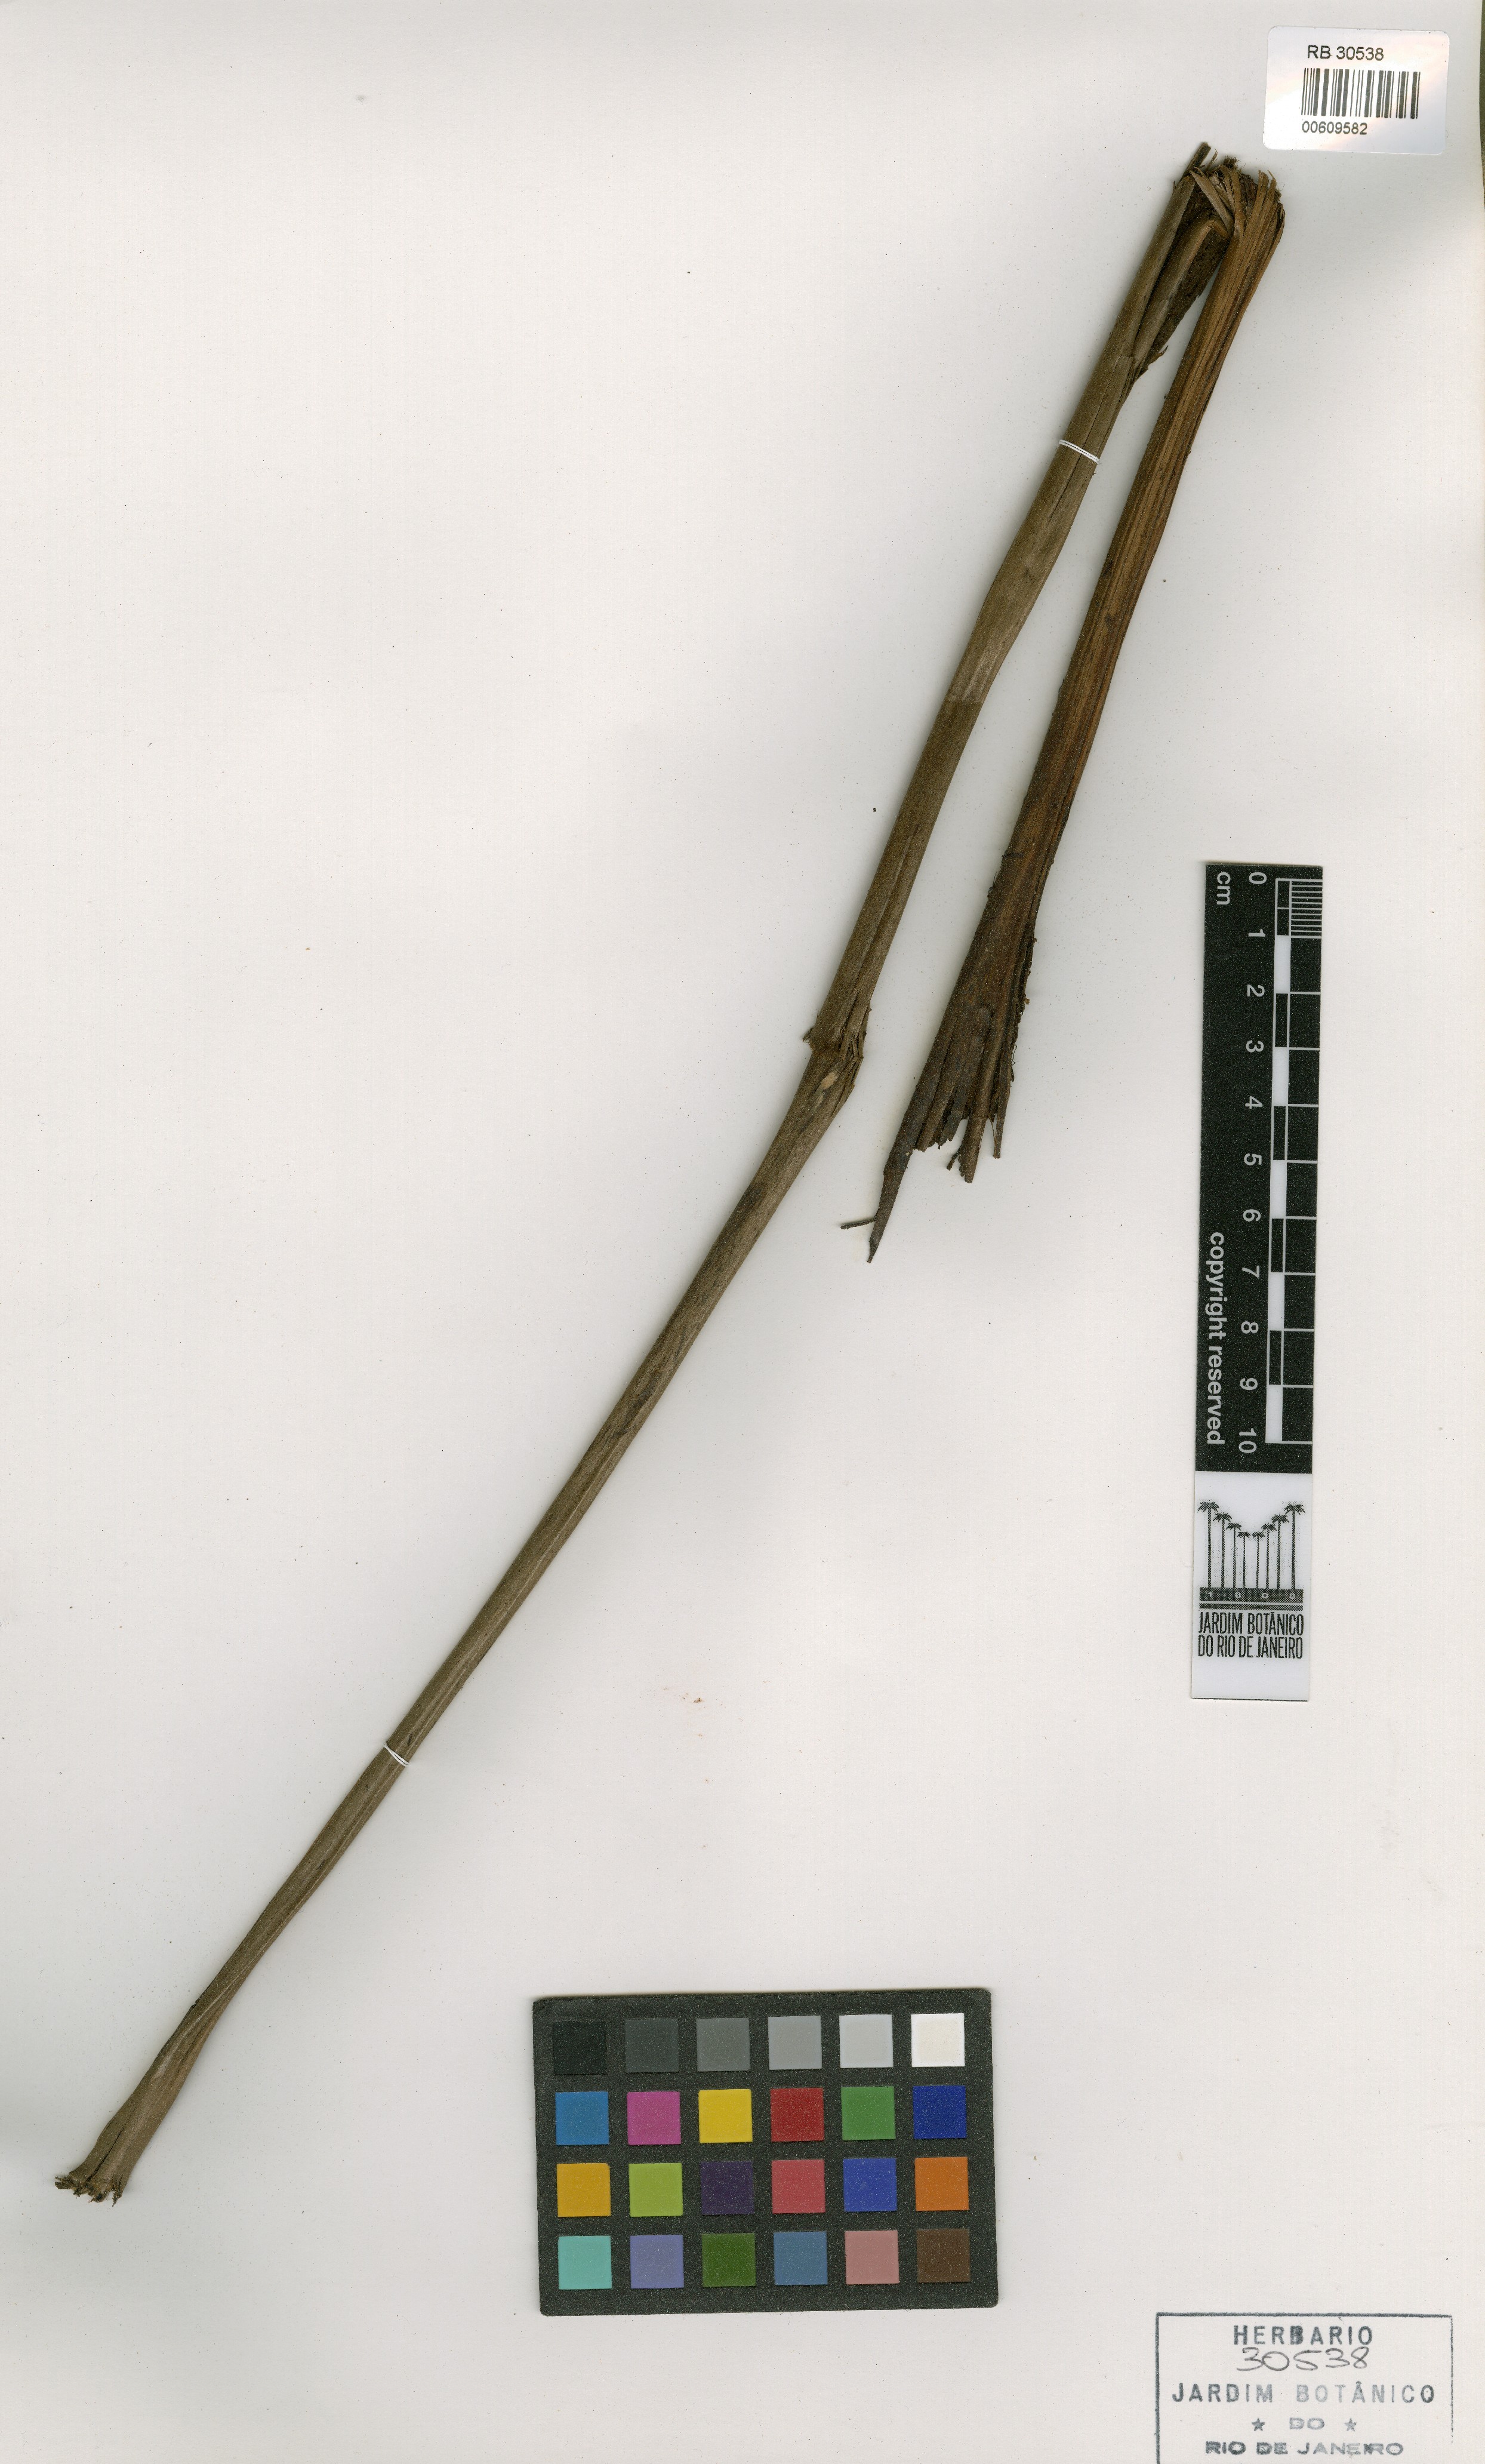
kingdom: Plantae
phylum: Tracheophyta
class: Polypodiopsida
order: Polypodiales
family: Dryopteridaceae
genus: Megalastrum
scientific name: Megalastrum canescens
